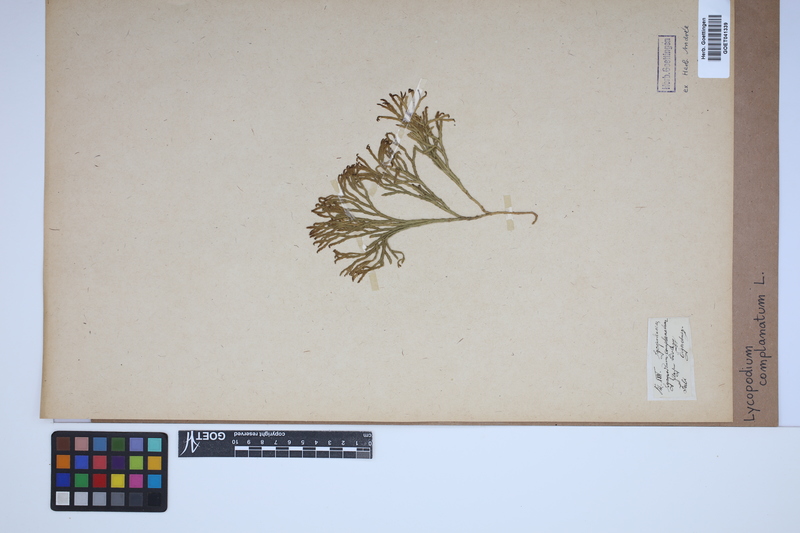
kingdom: Plantae
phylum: Tracheophyta
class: Lycopodiopsida
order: Lycopodiales
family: Lycopodiaceae
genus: Diphasiastrum
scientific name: Diphasiastrum complanatum
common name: Northern running-pine
